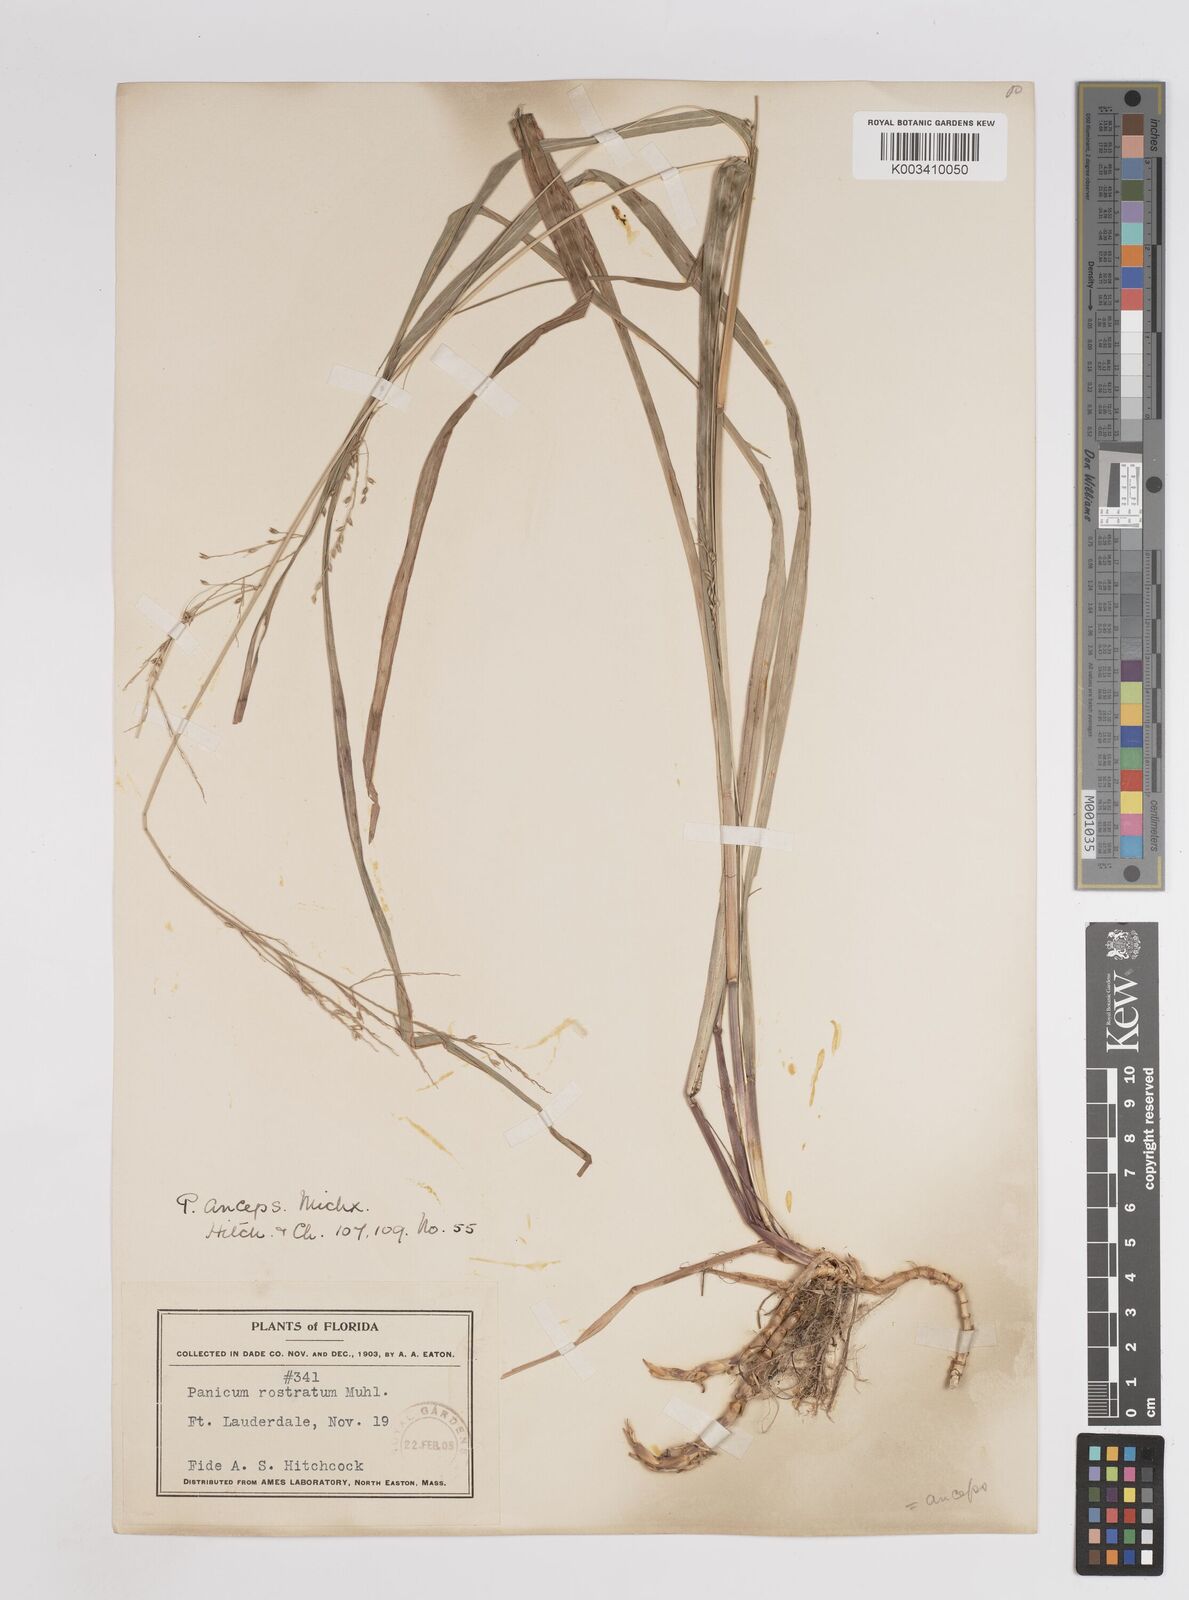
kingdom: Plantae
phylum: Tracheophyta
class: Liliopsida
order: Poales
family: Poaceae
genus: Coleataenia
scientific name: Coleataenia anceps
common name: Beaked panic grass
